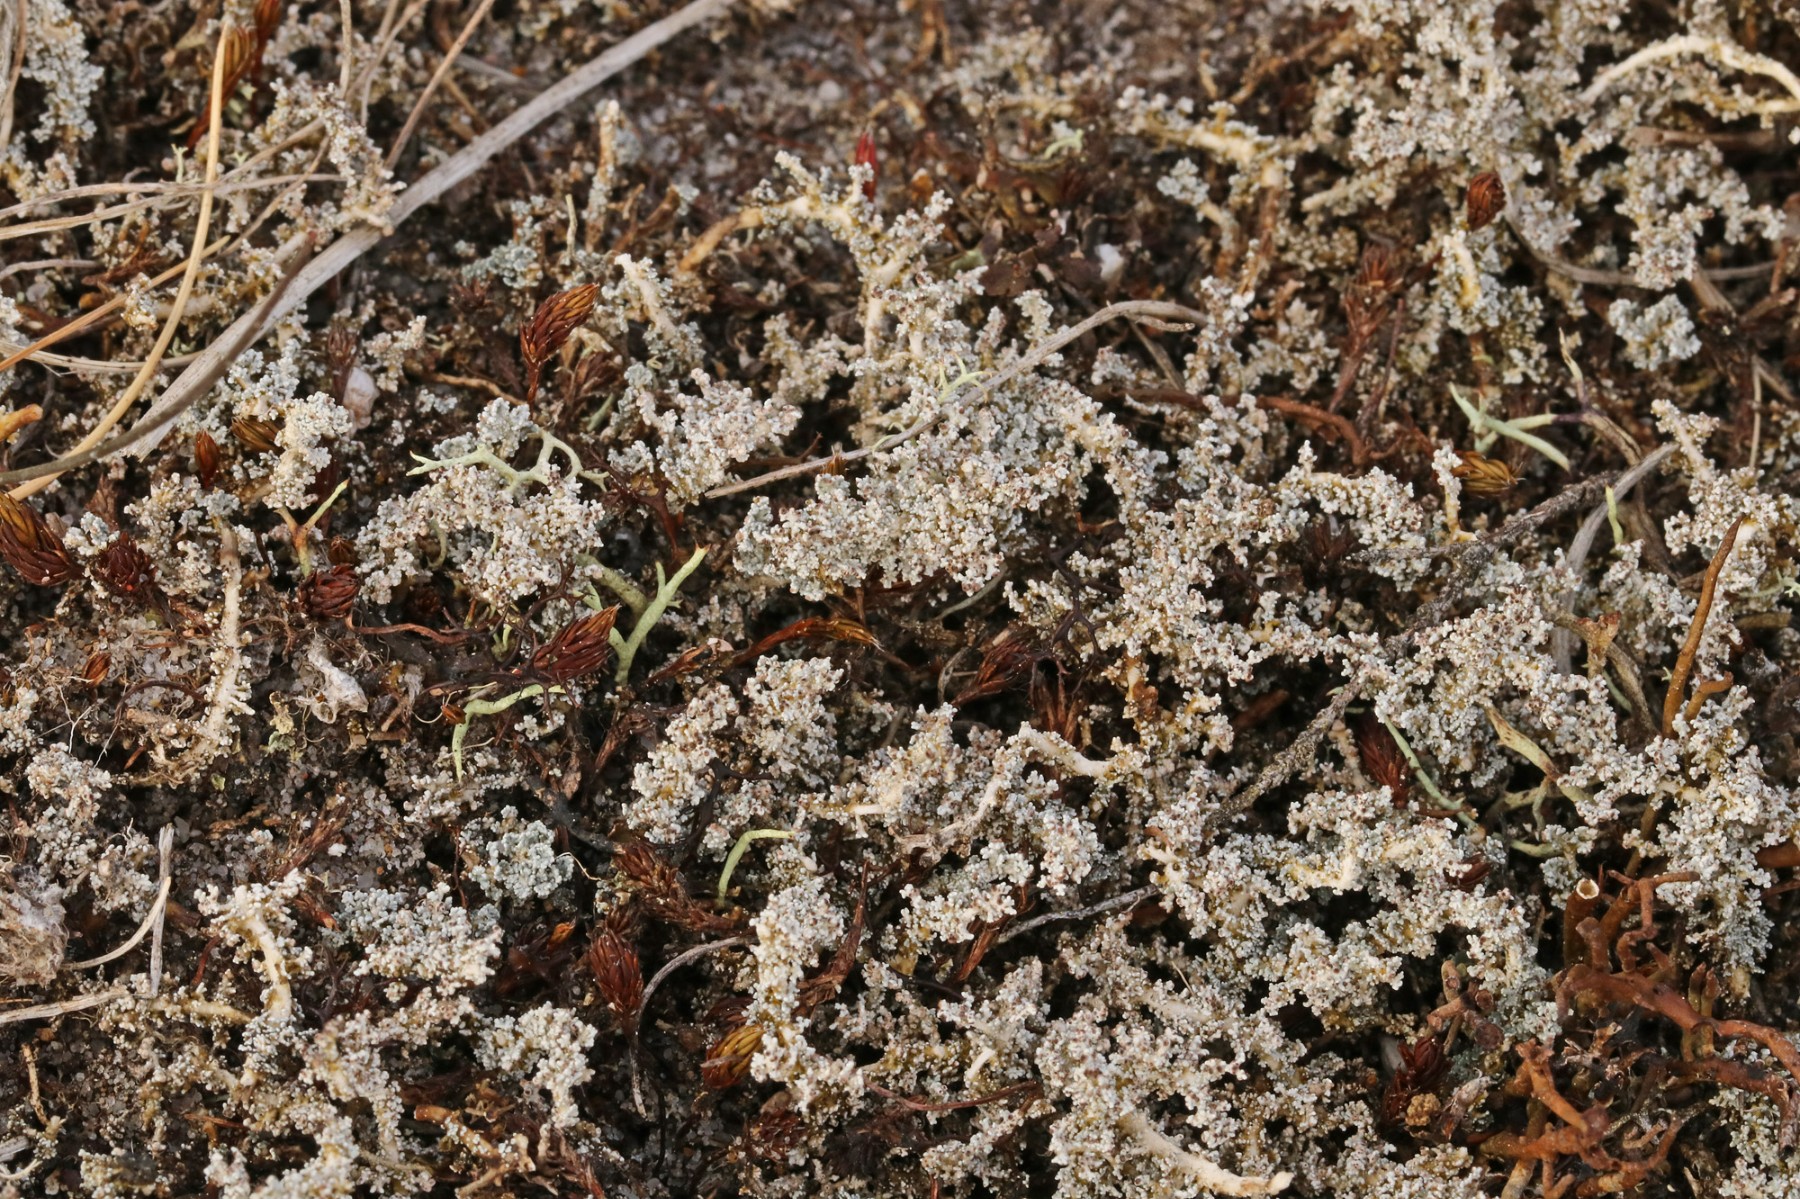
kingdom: Fungi
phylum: Ascomycota
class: Lecanoromycetes
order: Lecanorales
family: Stereocaulaceae
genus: Stereocaulon
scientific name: Stereocaulon saxatile
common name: klit-korallav
